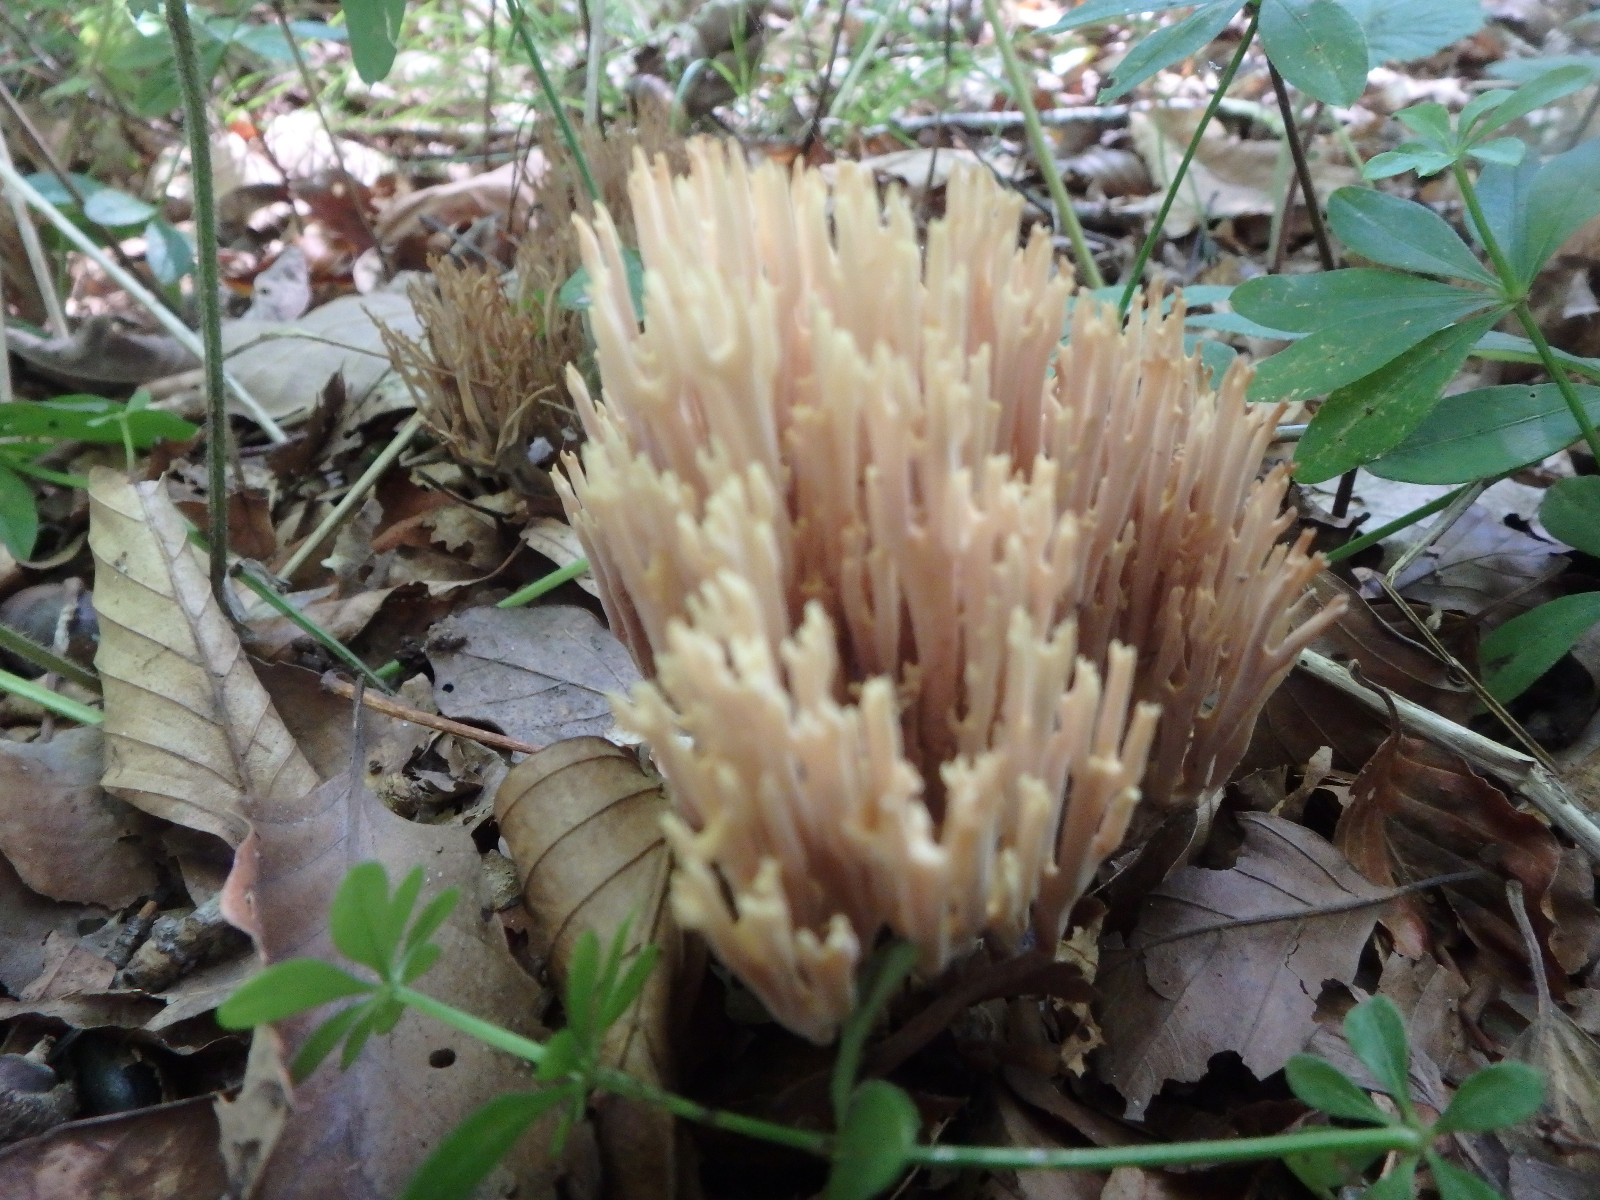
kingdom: Fungi
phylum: Basidiomycota
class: Agaricomycetes
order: Gomphales
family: Gomphaceae
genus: Ramaria
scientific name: Ramaria stricta
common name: rank koralsvamp
